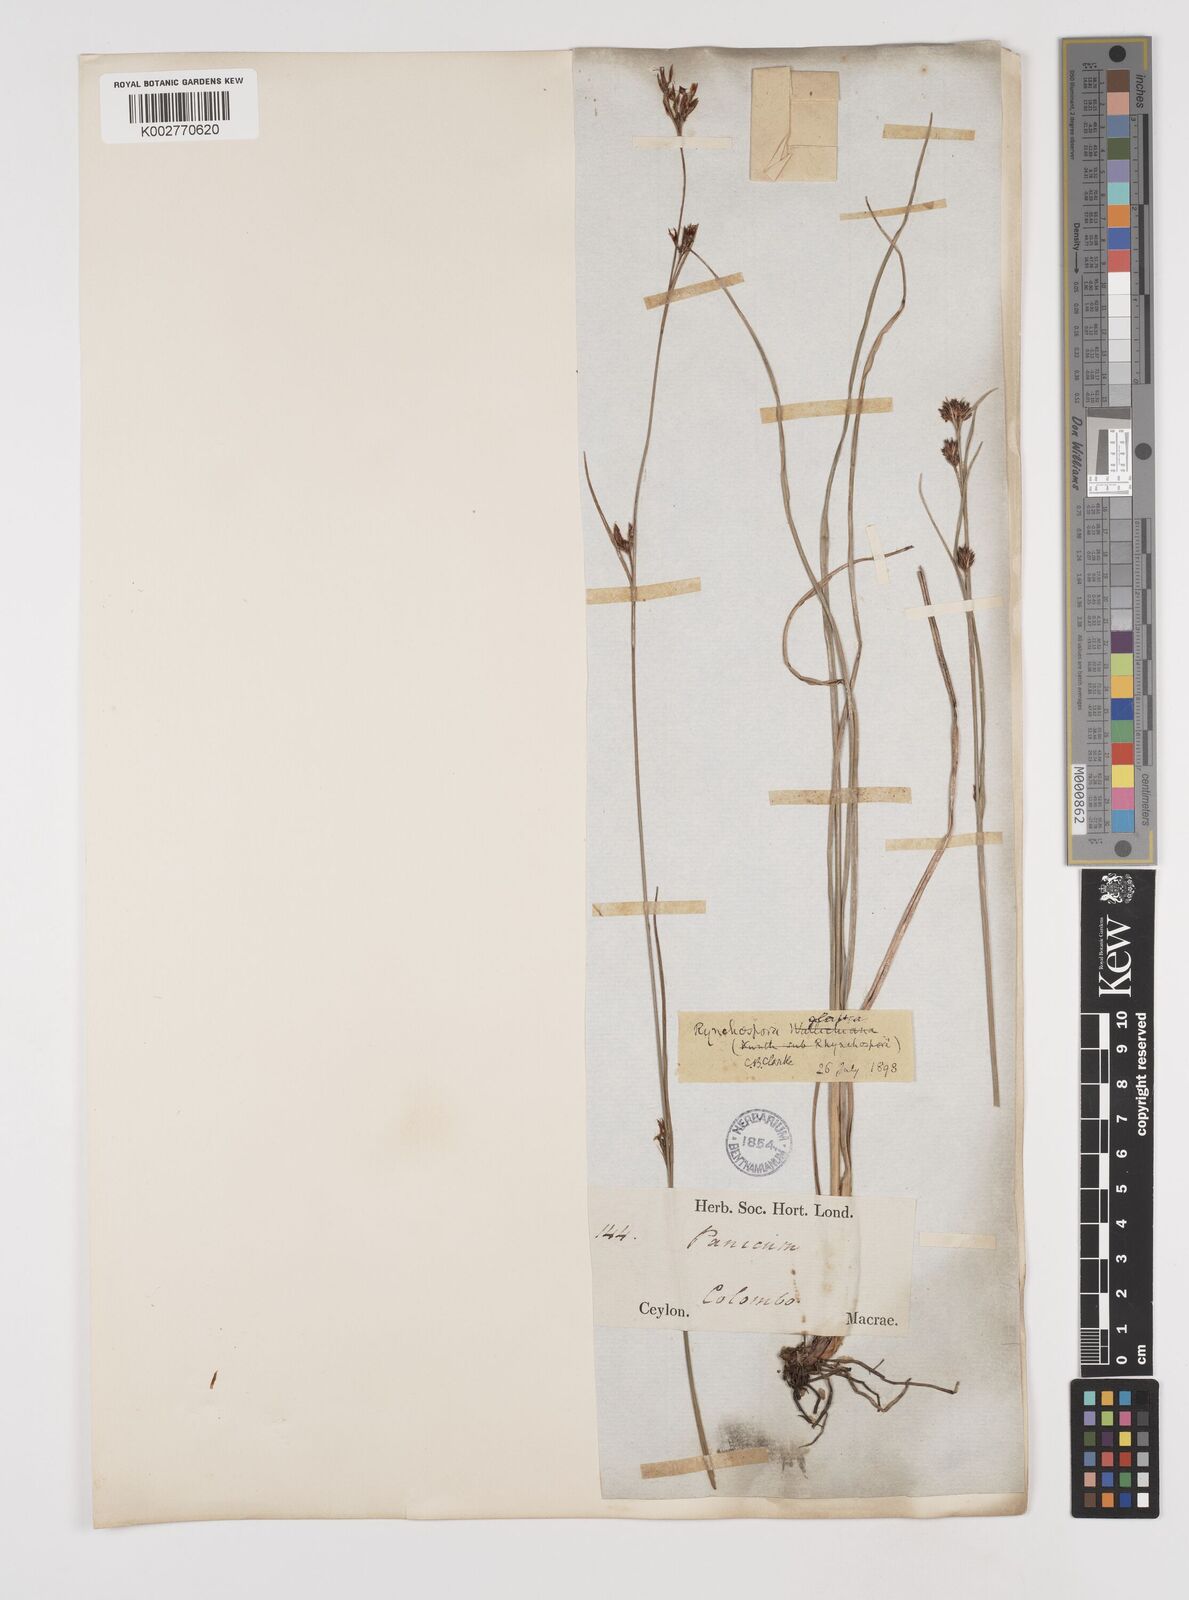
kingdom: Plantae
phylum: Tracheophyta
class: Liliopsida
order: Poales
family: Cyperaceae
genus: Rhynchospora
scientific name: Rhynchospora rugosa
